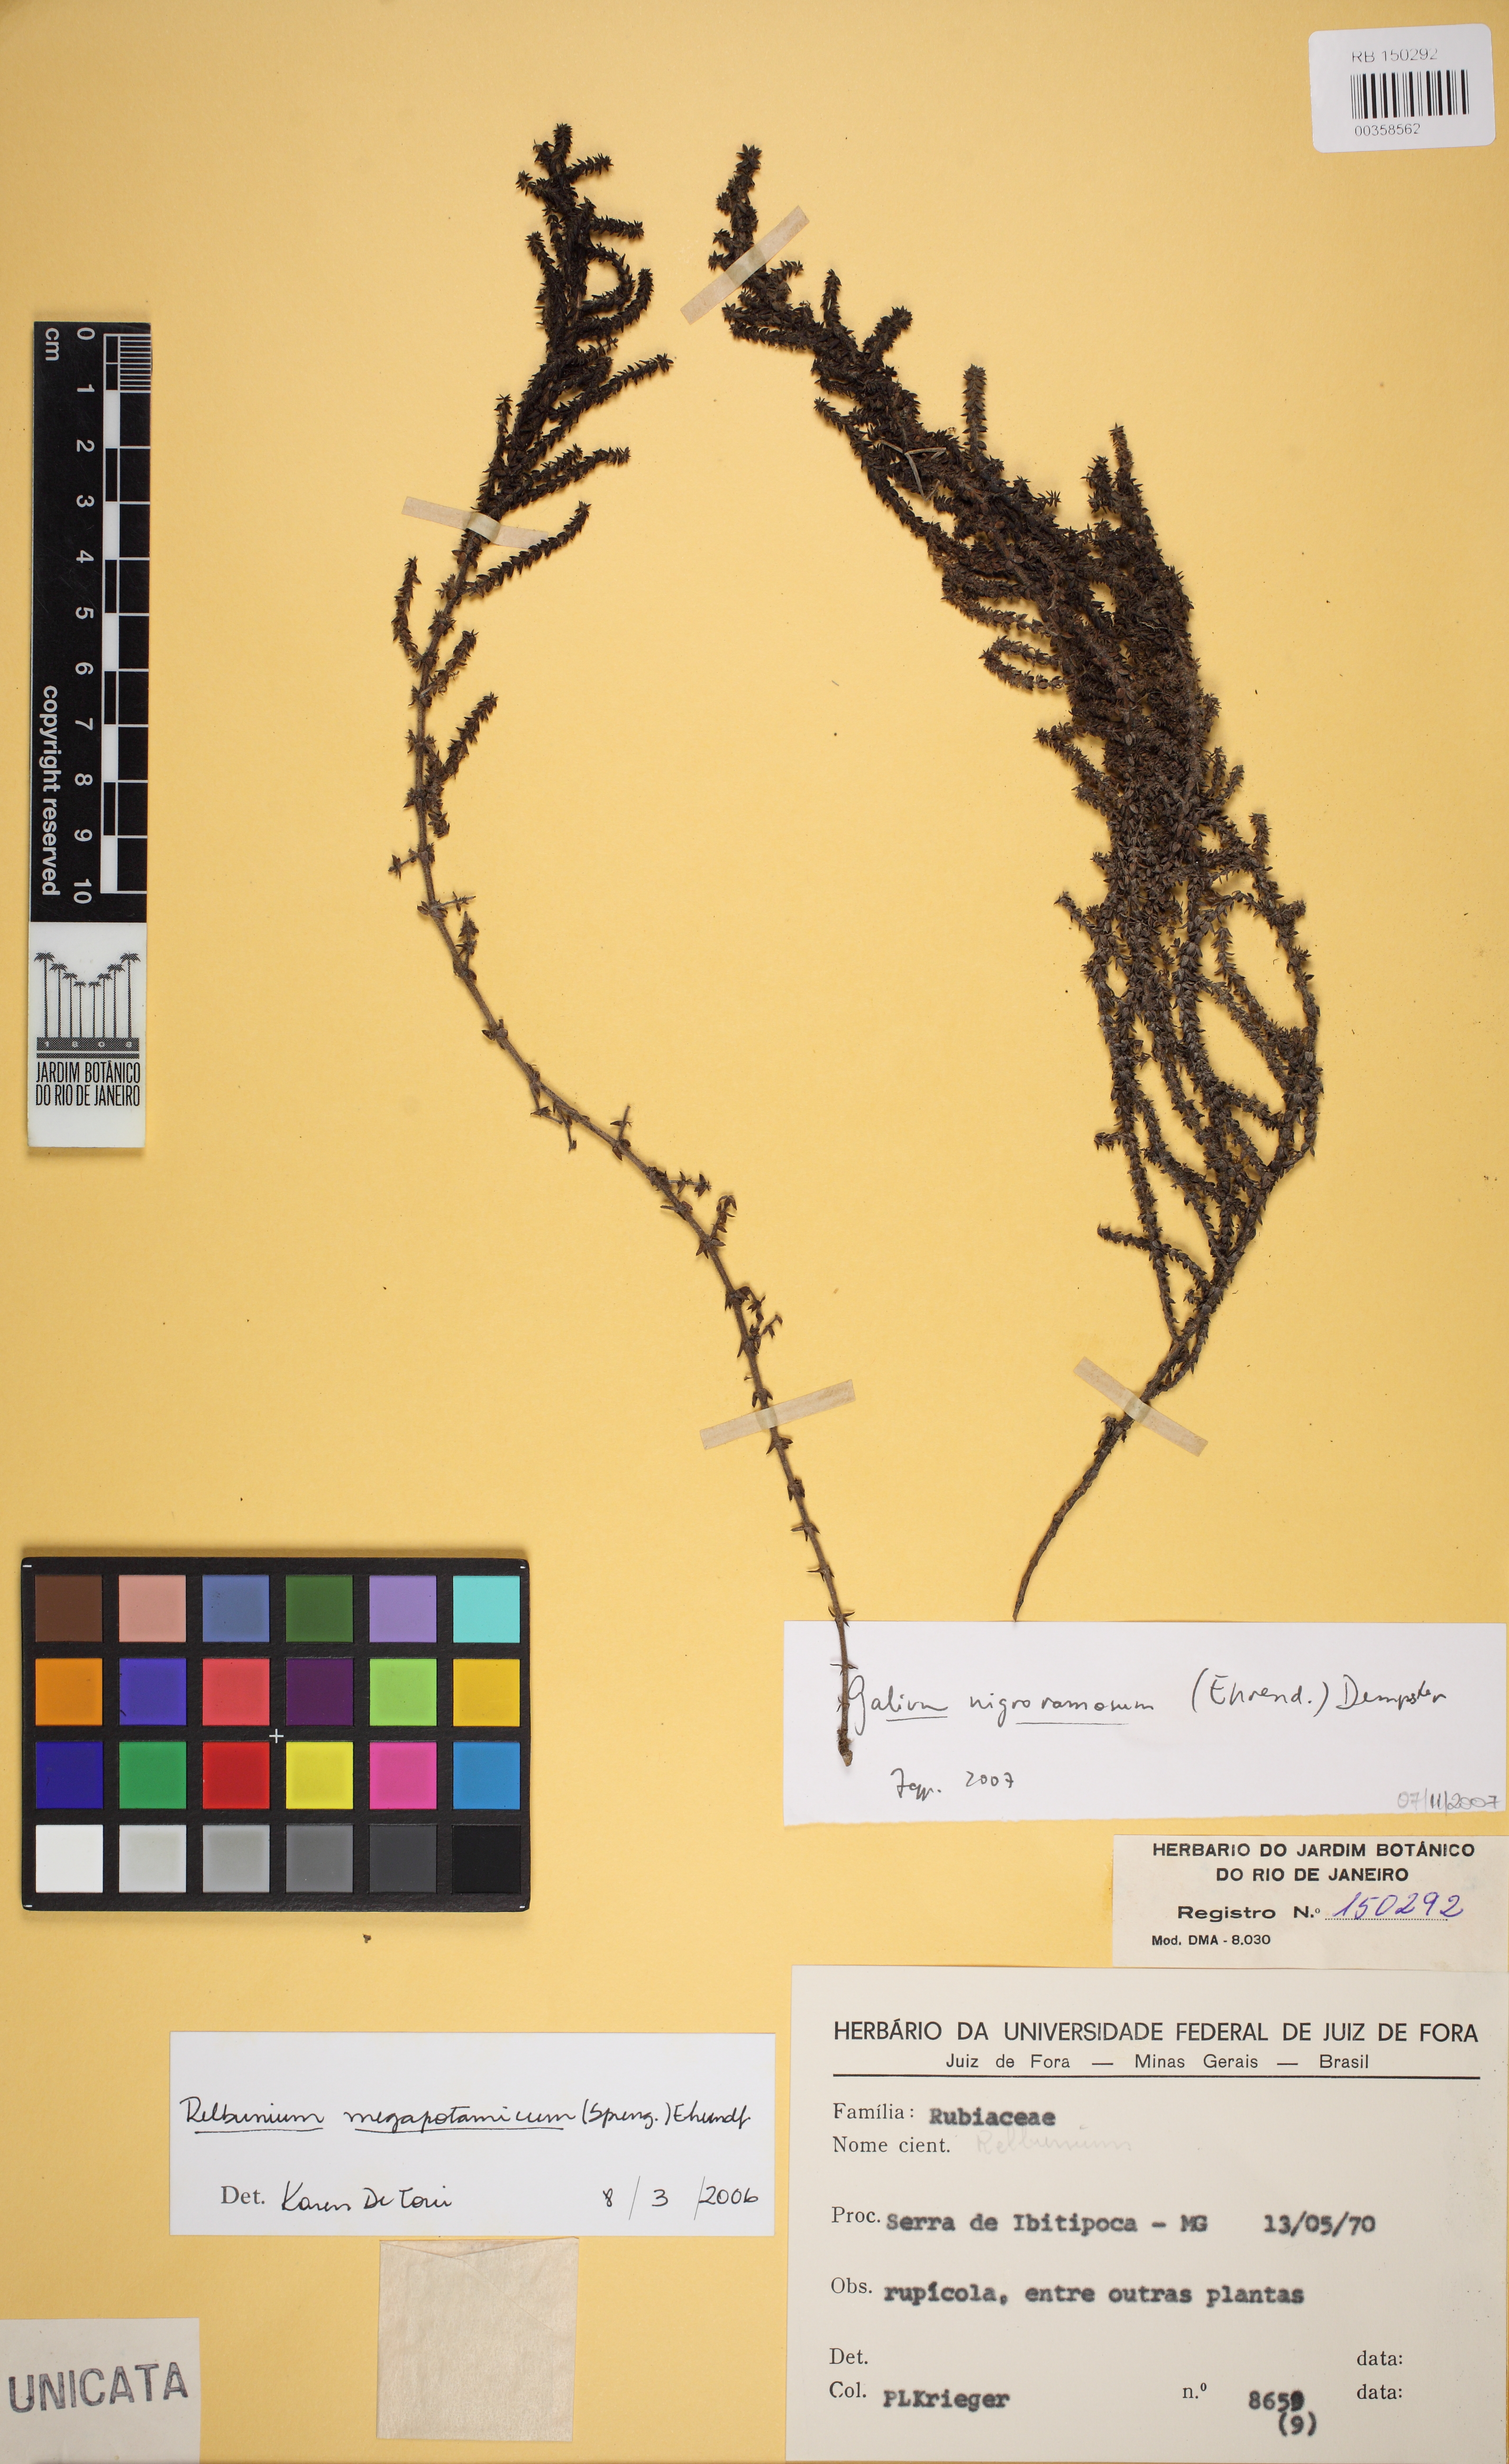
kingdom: Plantae
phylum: Tracheophyta
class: Magnoliopsida
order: Gentianales
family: Rubiaceae
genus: Galium
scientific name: Galium nigroramosum
